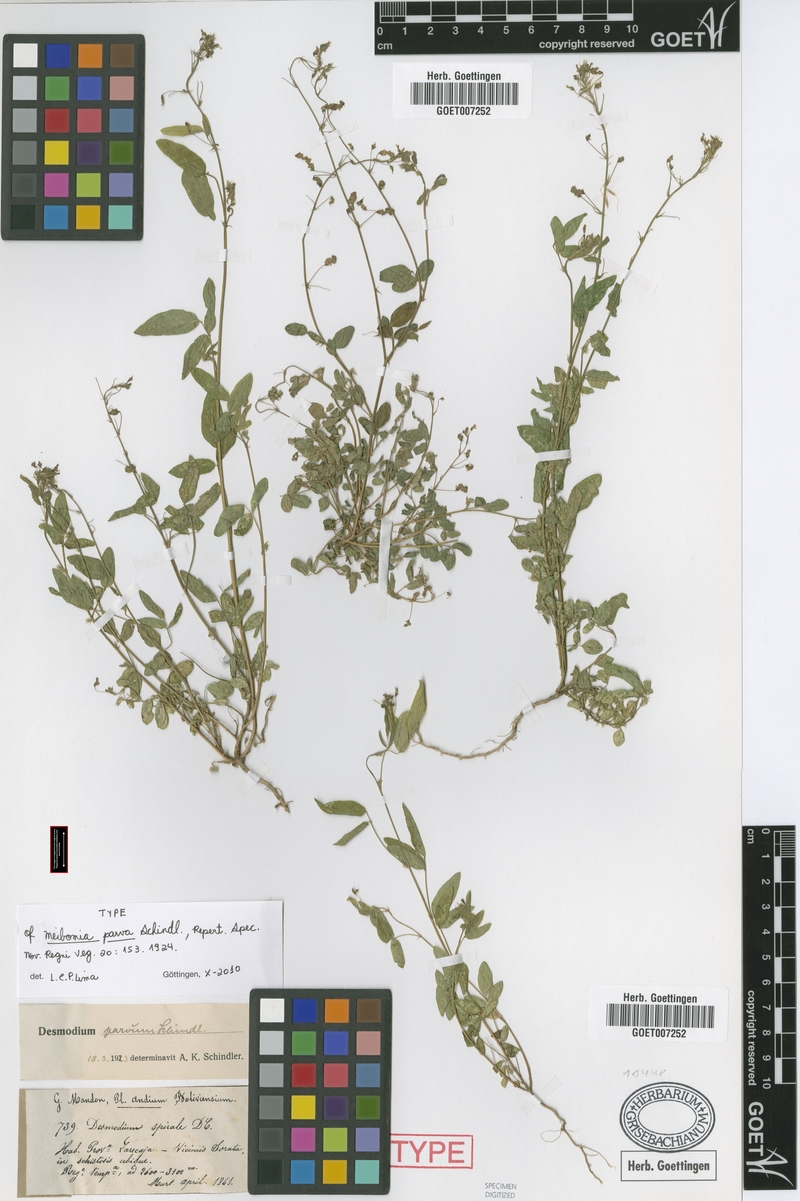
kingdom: Plantae
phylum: Tracheophyta
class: Magnoliopsida
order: Fabales
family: Fabaceae
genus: Desmodium
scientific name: Desmodium procumbens
